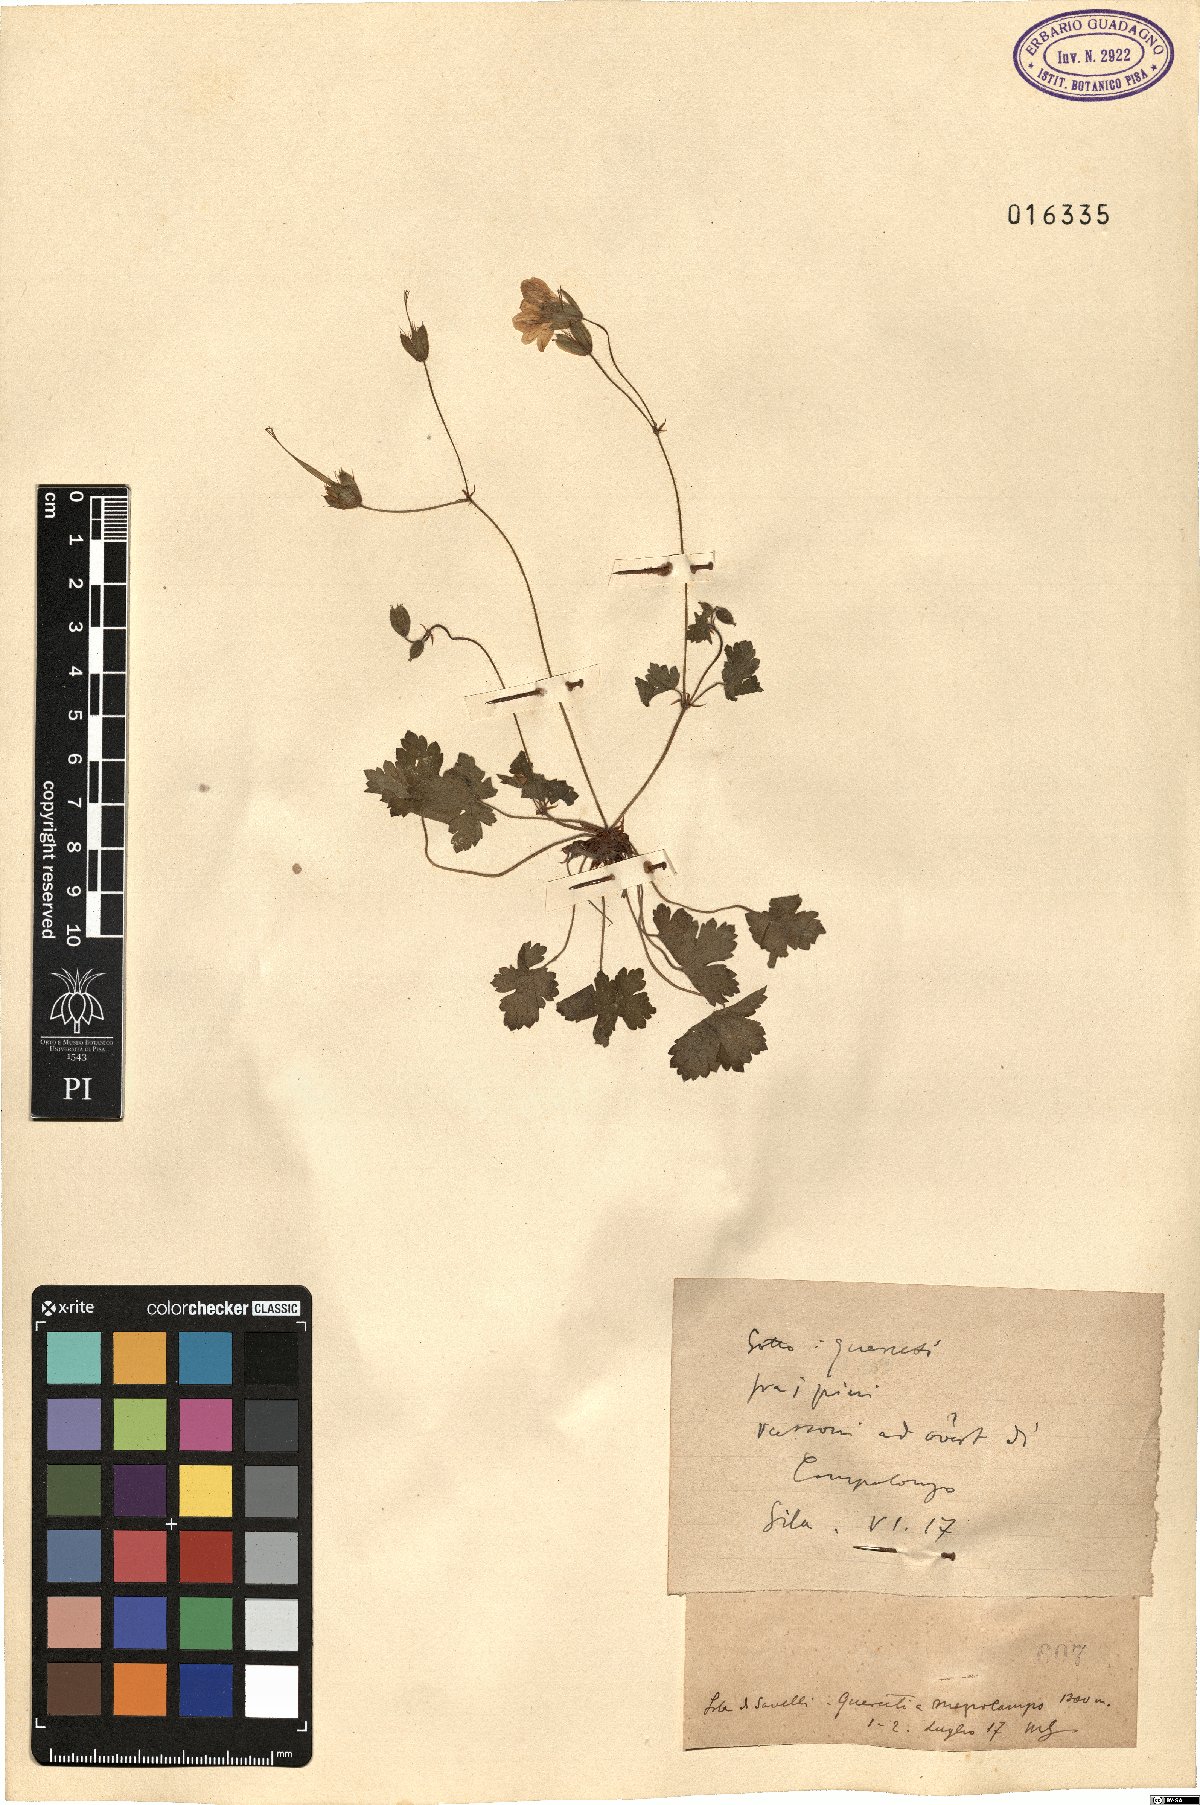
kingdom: Plantae
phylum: Tracheophyta
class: Magnoliopsida
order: Geraniales
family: Geraniaceae
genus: Geranium
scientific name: Geranium
